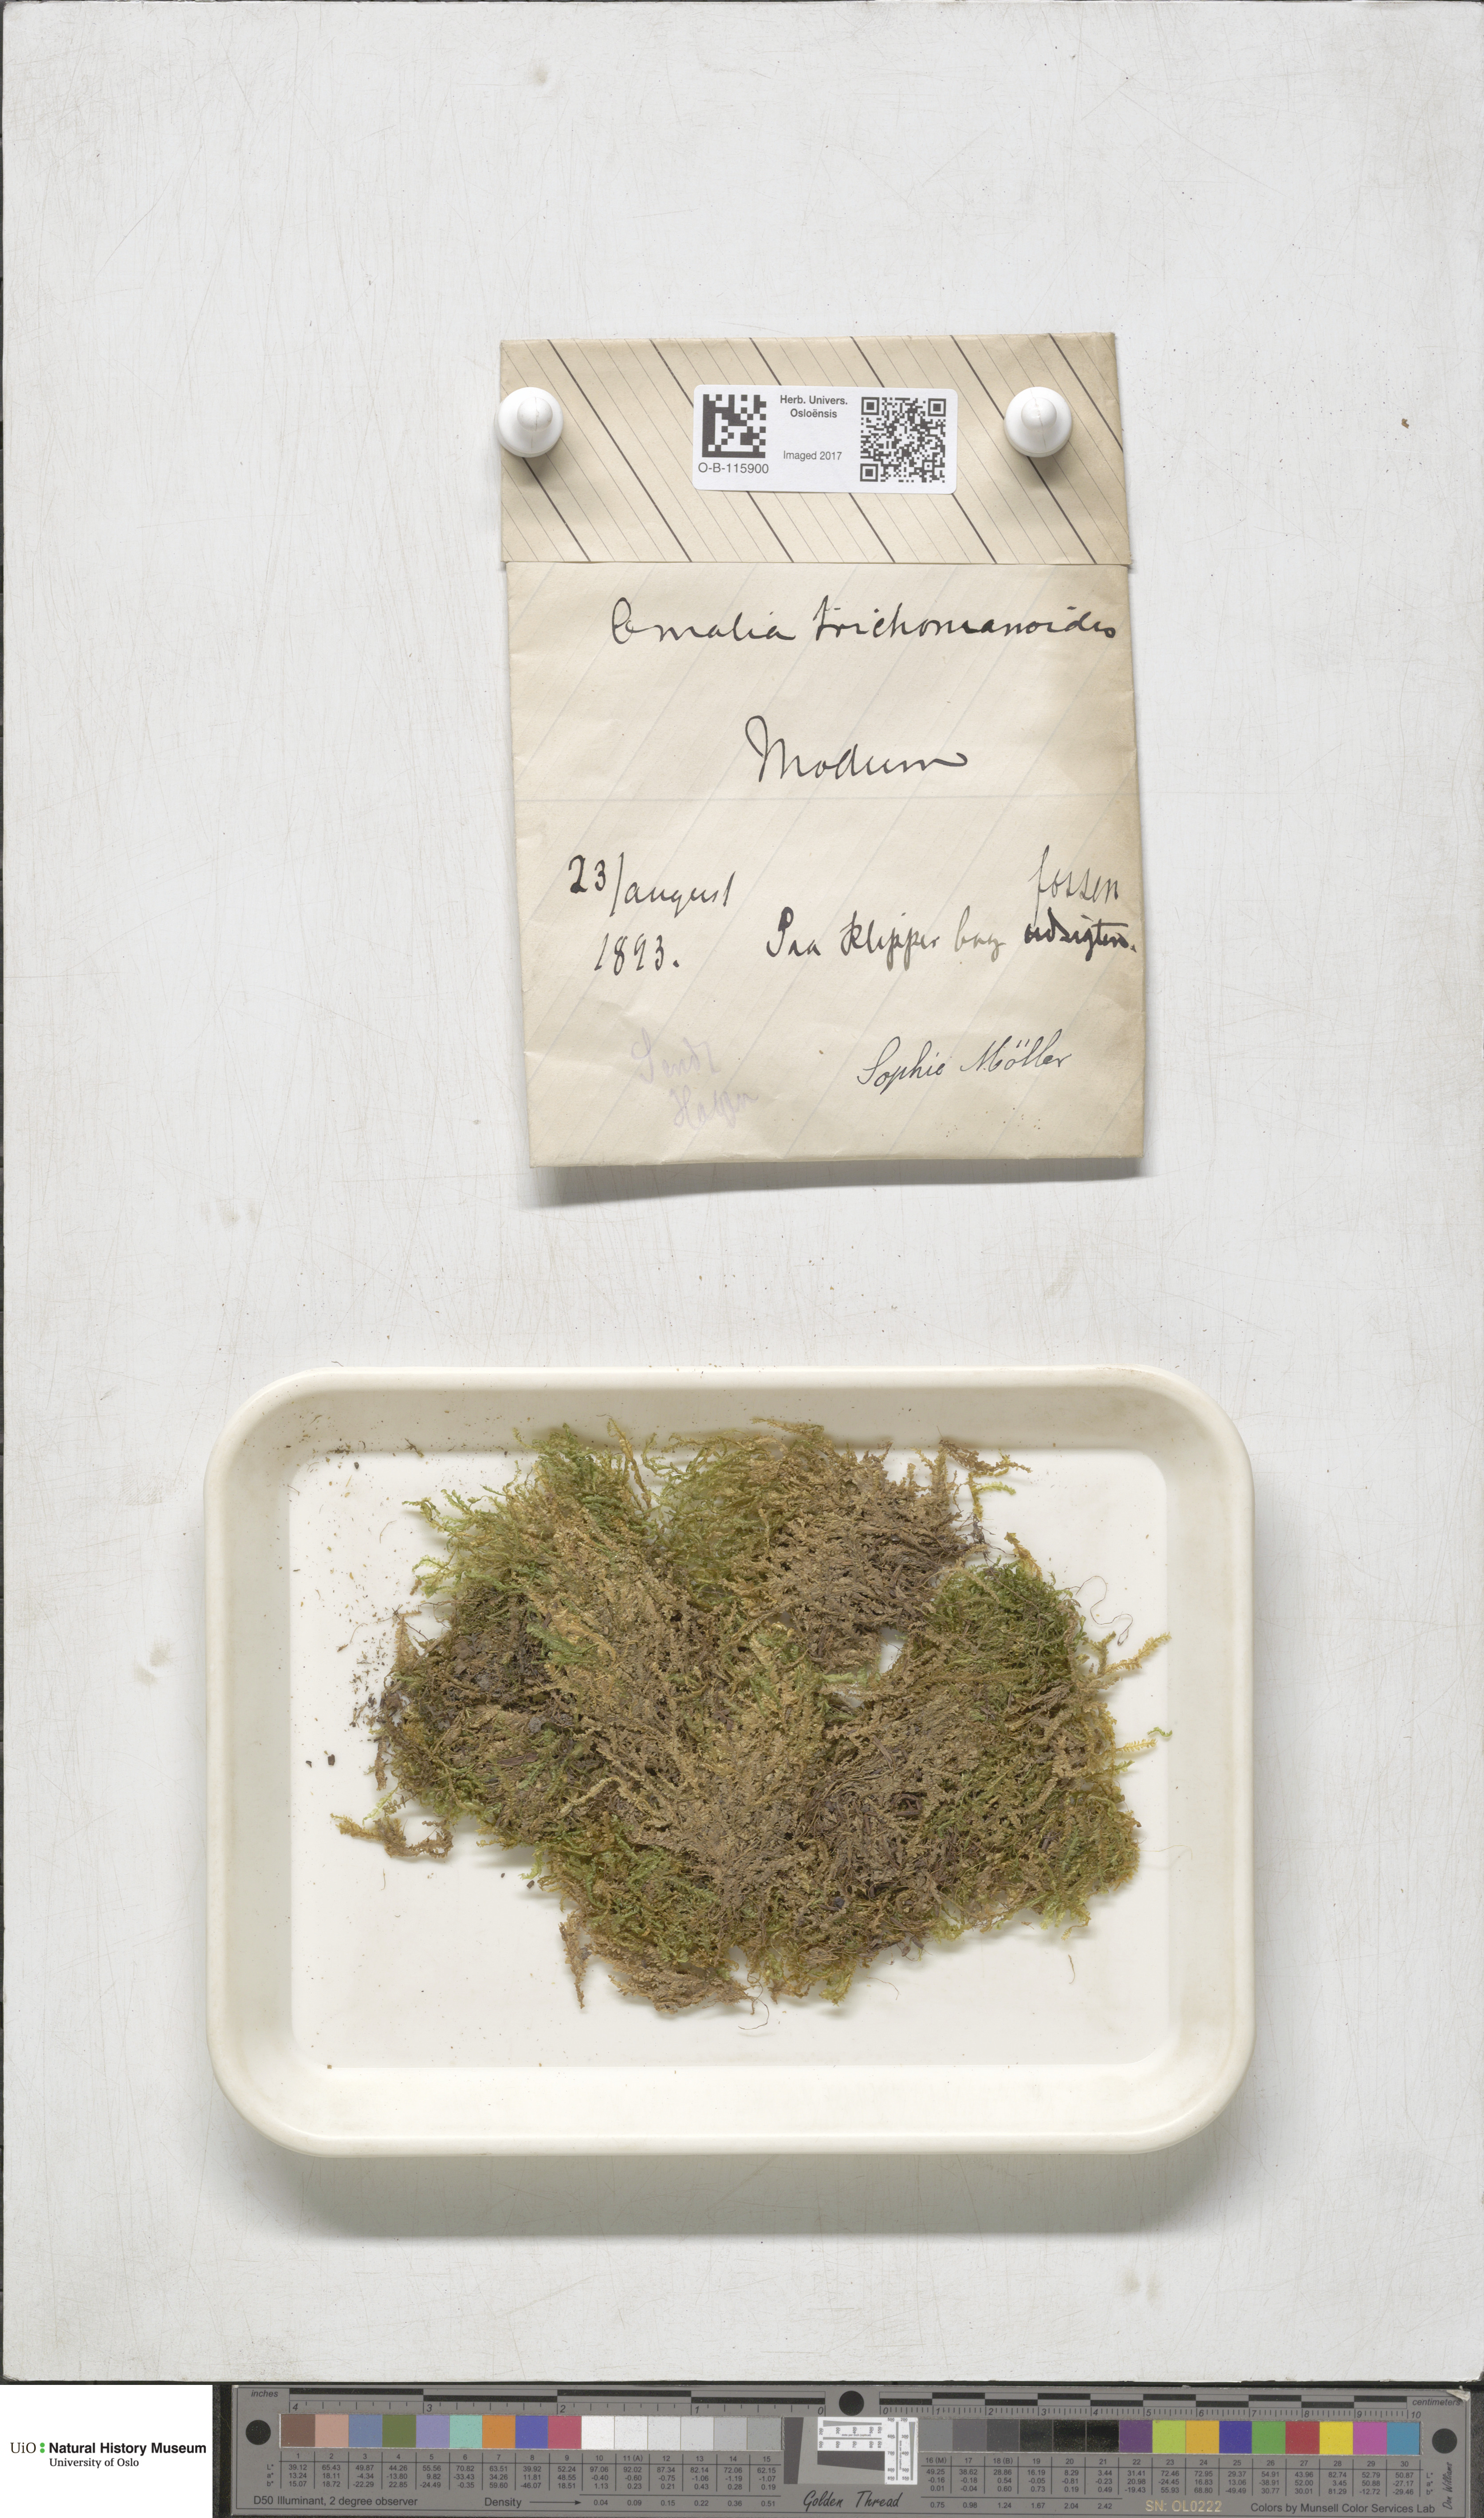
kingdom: Plantae
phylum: Bryophyta
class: Bryopsida
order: Hypnales
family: Neckeraceae
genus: Homalia
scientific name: Homalia trichomanoides
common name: Lime homalia moss
